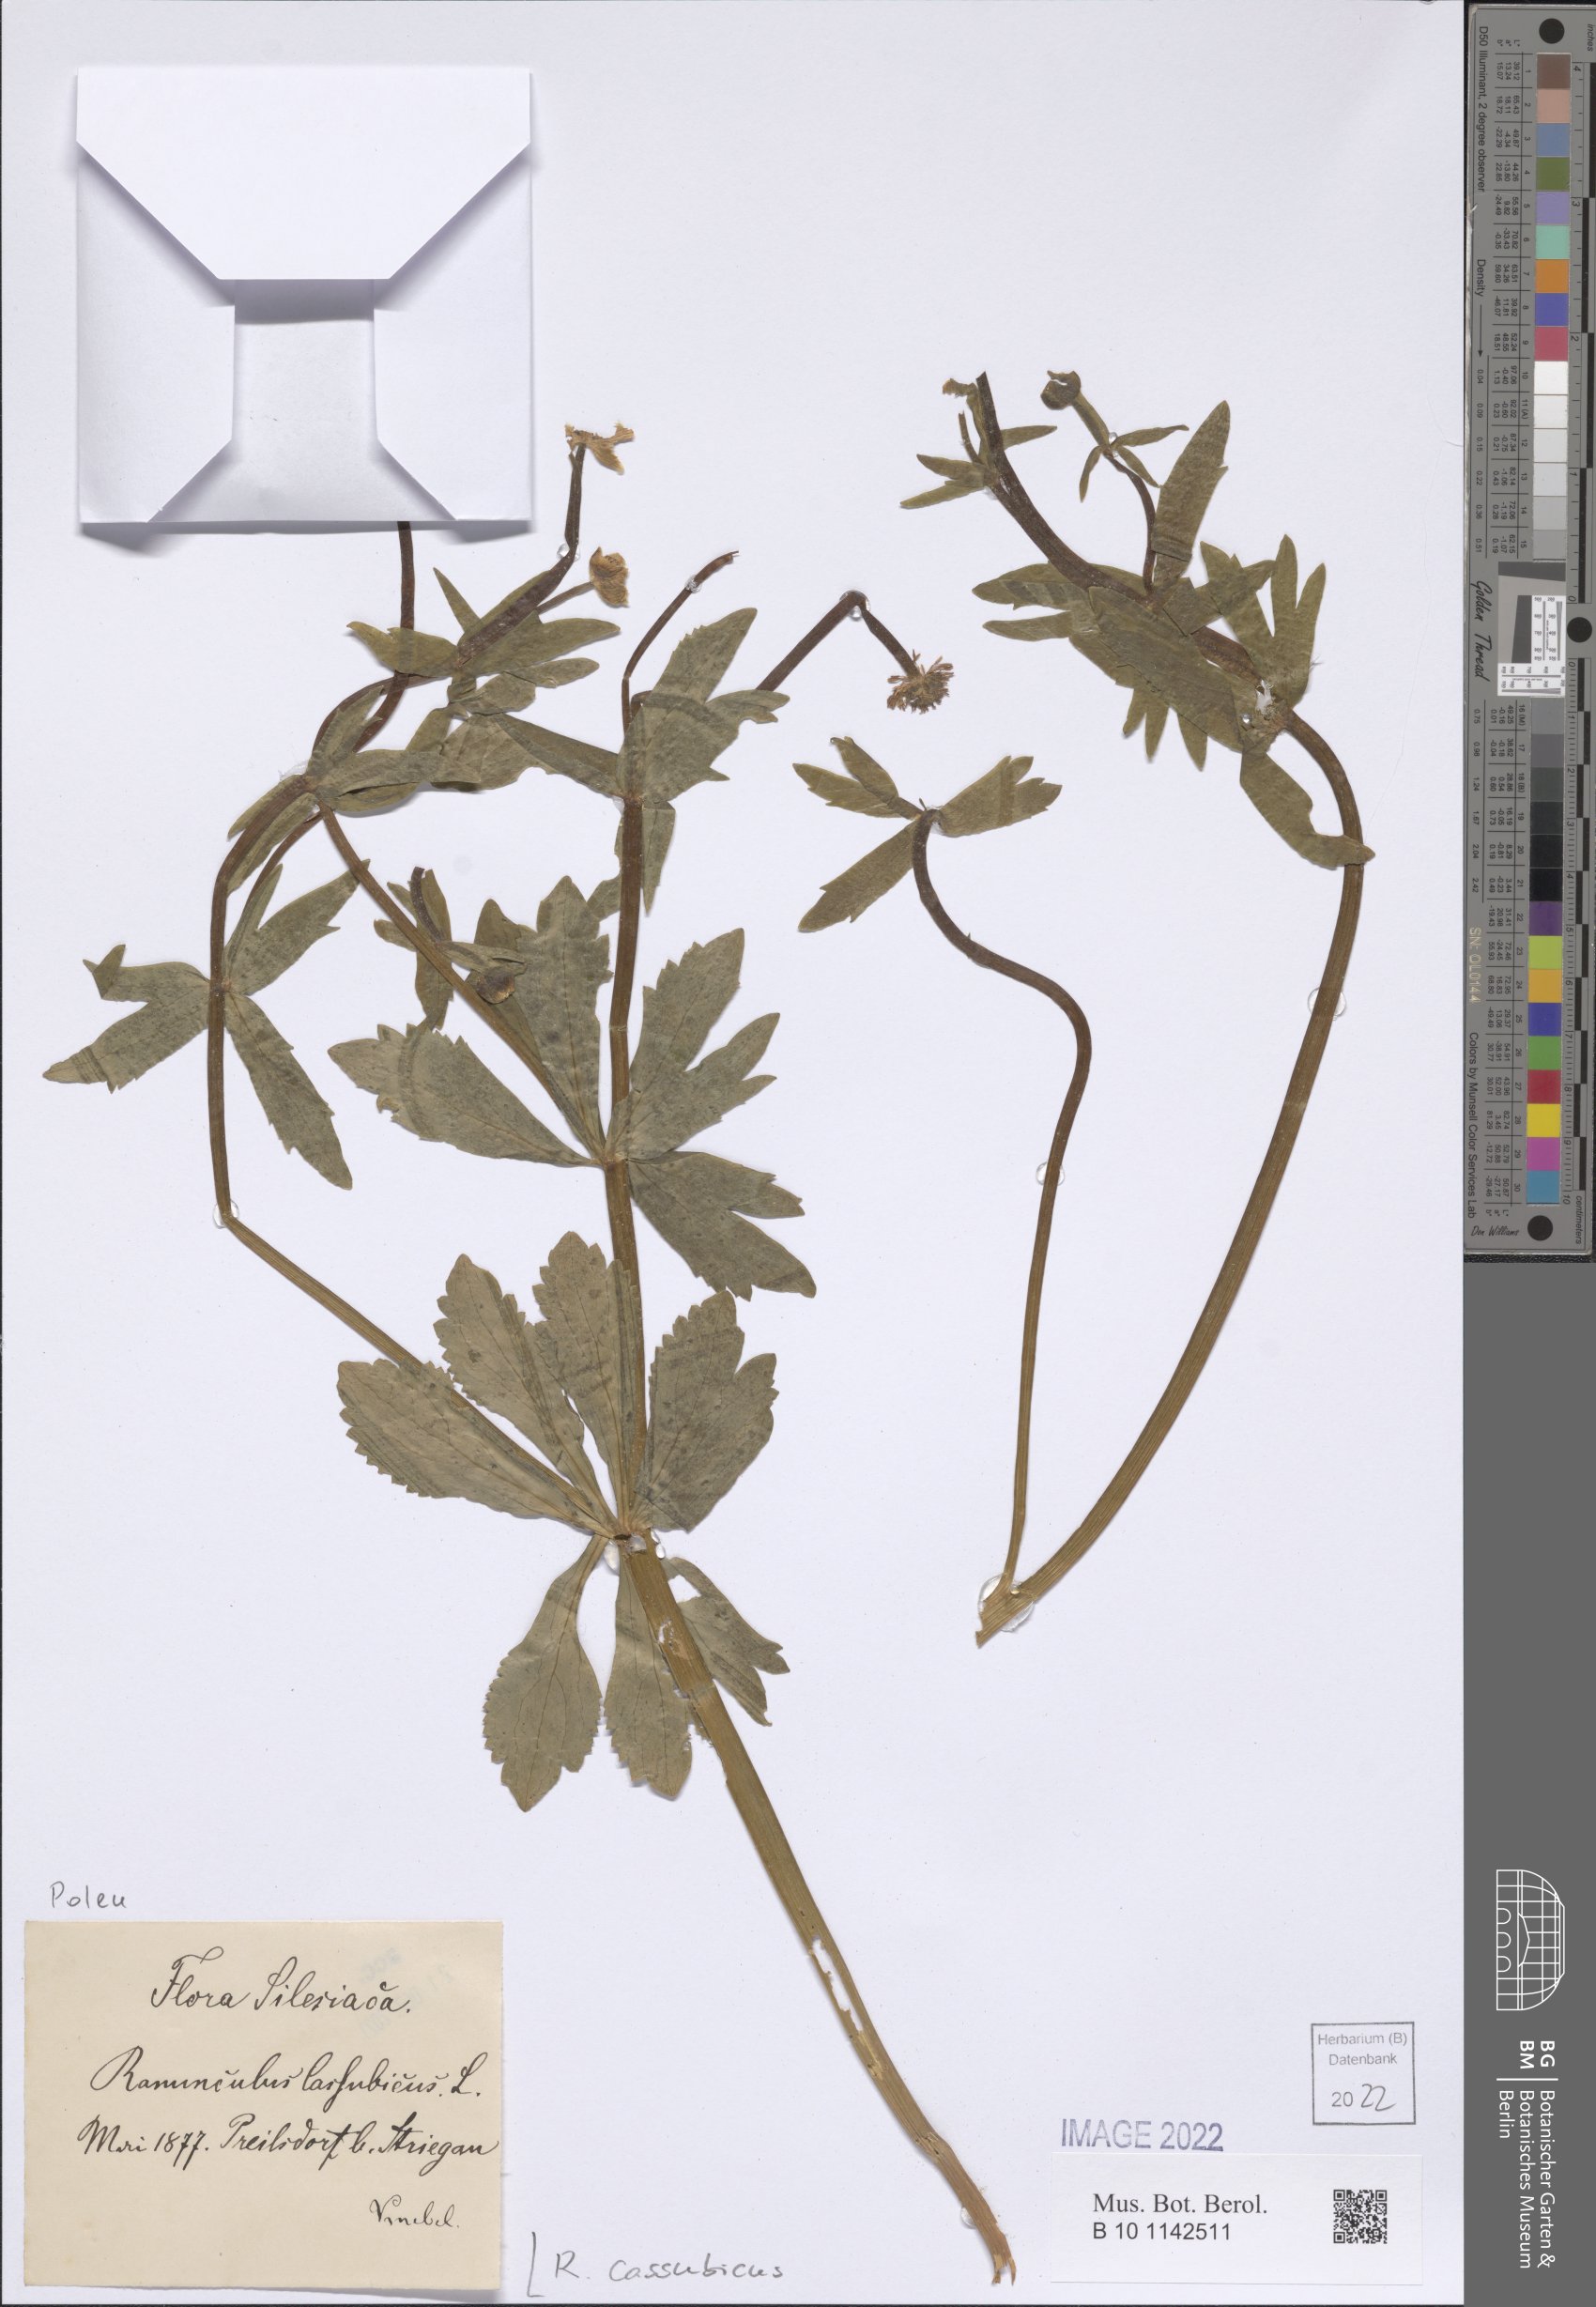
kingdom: Plantae
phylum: Tracheophyta
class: Magnoliopsida
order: Ranunculales
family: Ranunculaceae
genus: Ranunculus
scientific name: Ranunculus cassubicus
